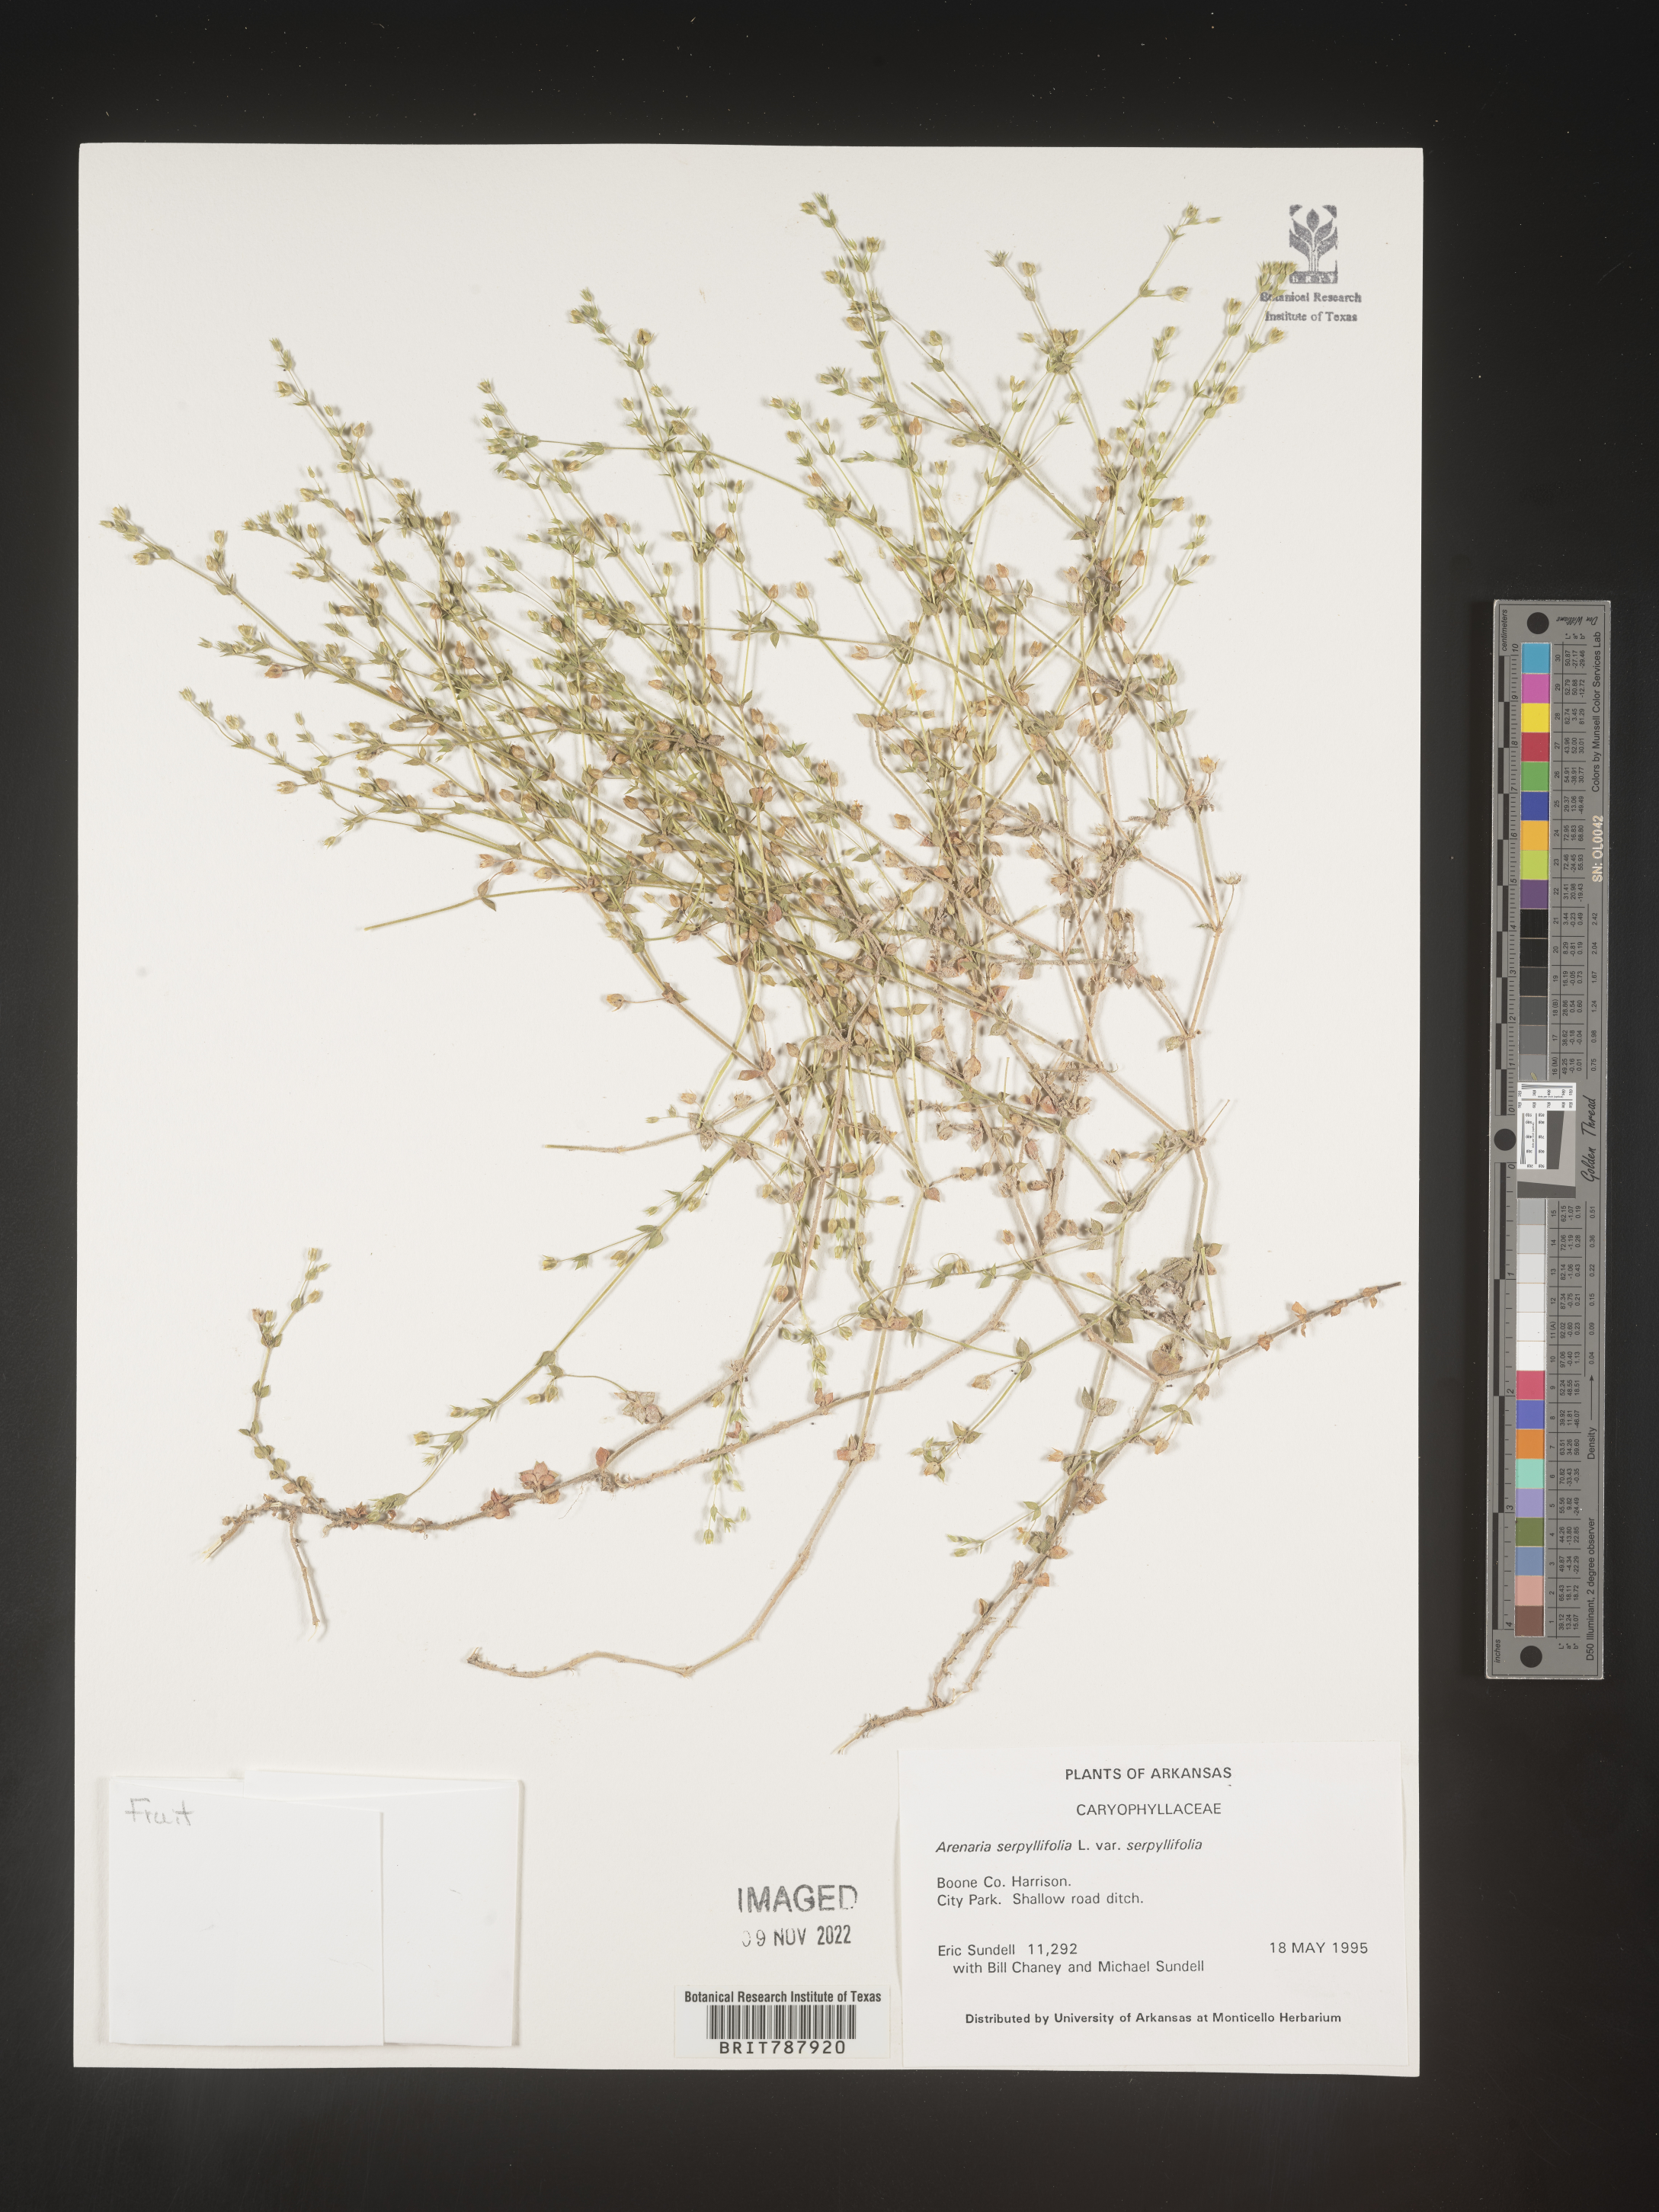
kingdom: Plantae
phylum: Tracheophyta
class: Magnoliopsida
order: Caryophyllales
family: Caryophyllaceae
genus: Arenaria
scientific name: Arenaria serpyllifolia
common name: Thyme-leaved sandwort
